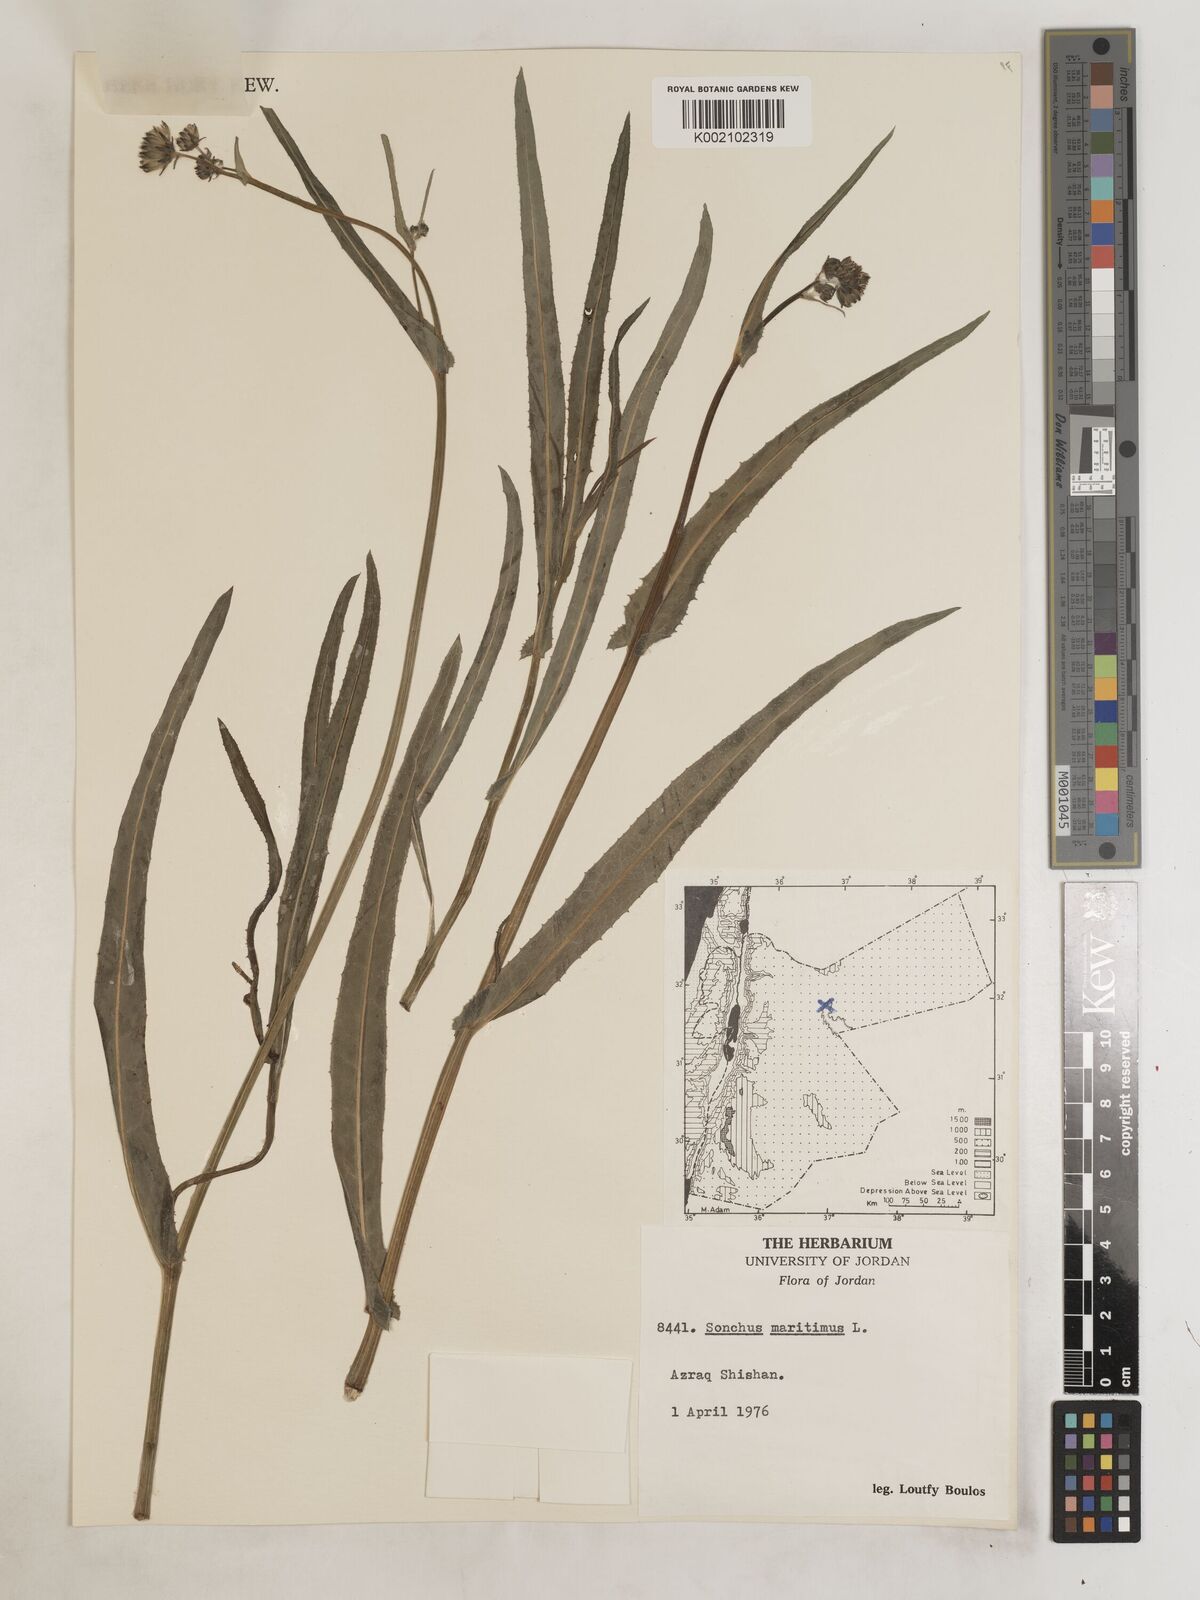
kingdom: Plantae
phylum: Tracheophyta
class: Magnoliopsida
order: Asterales
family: Asteraceae
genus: Sonchus
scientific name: Sonchus maritimus
